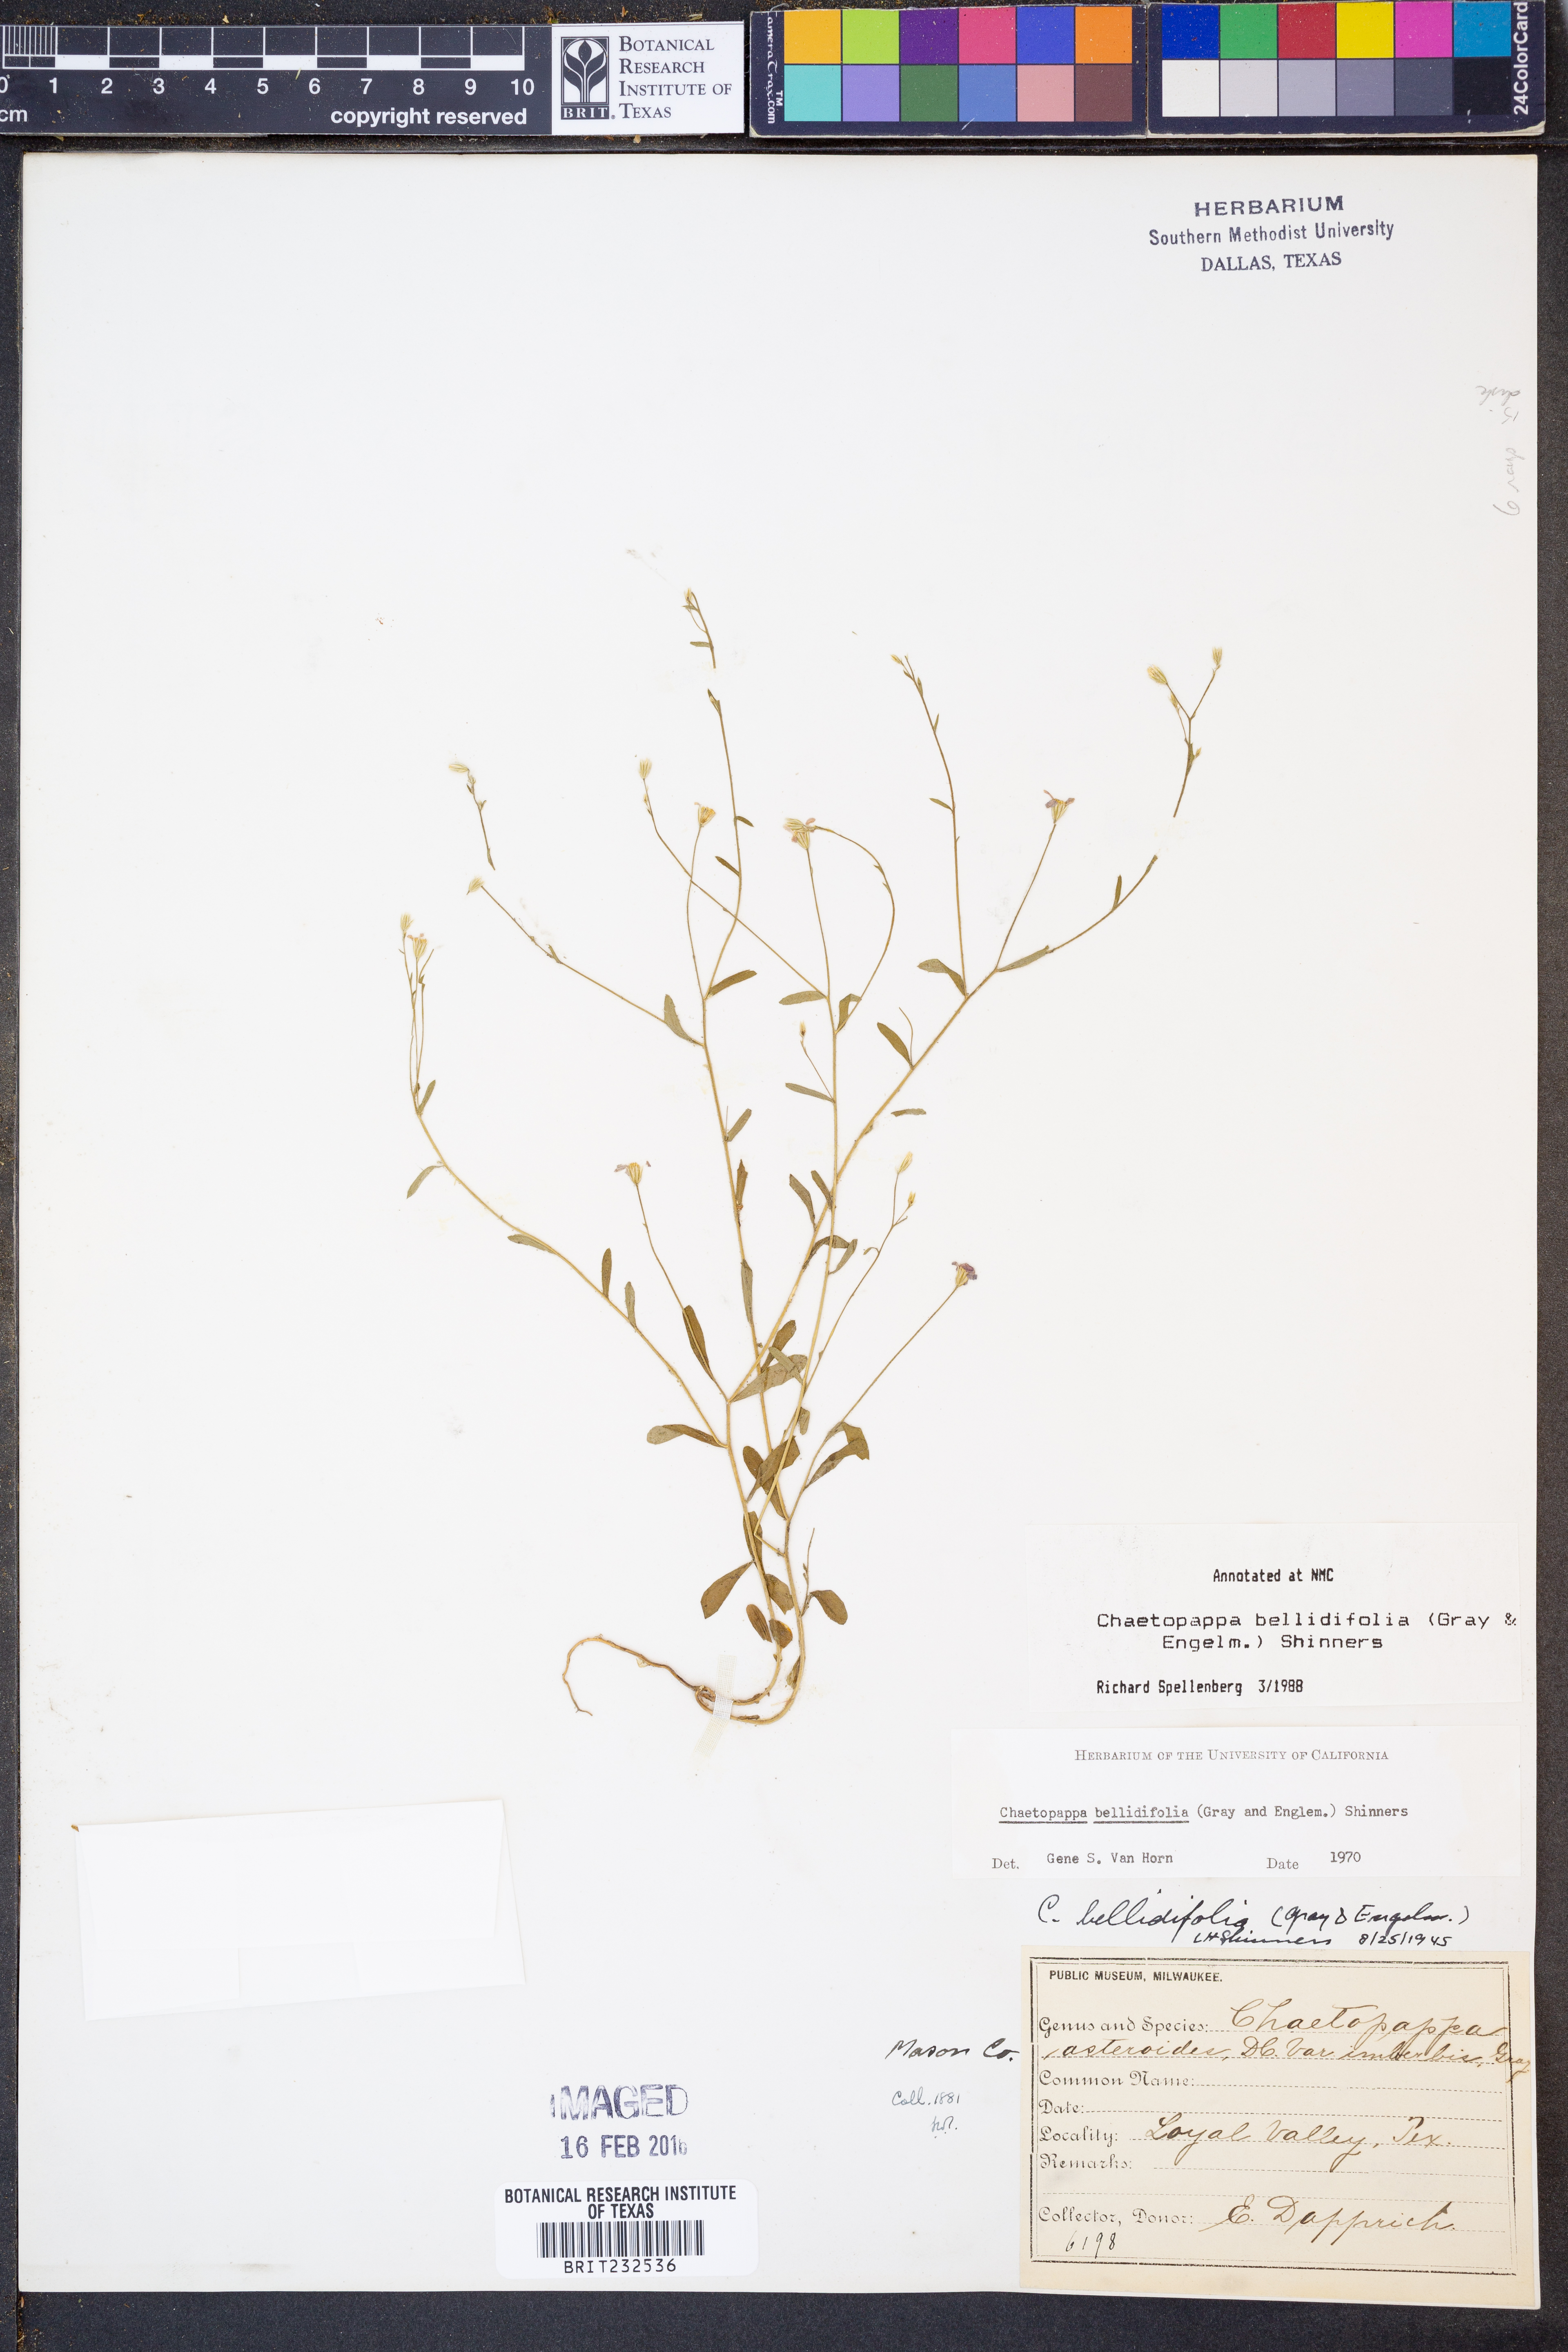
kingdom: Plantae
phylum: Tracheophyta
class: Magnoliopsida
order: Asterales
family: Asteraceae
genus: Chaetopappa
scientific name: Chaetopappa bellidifolia
